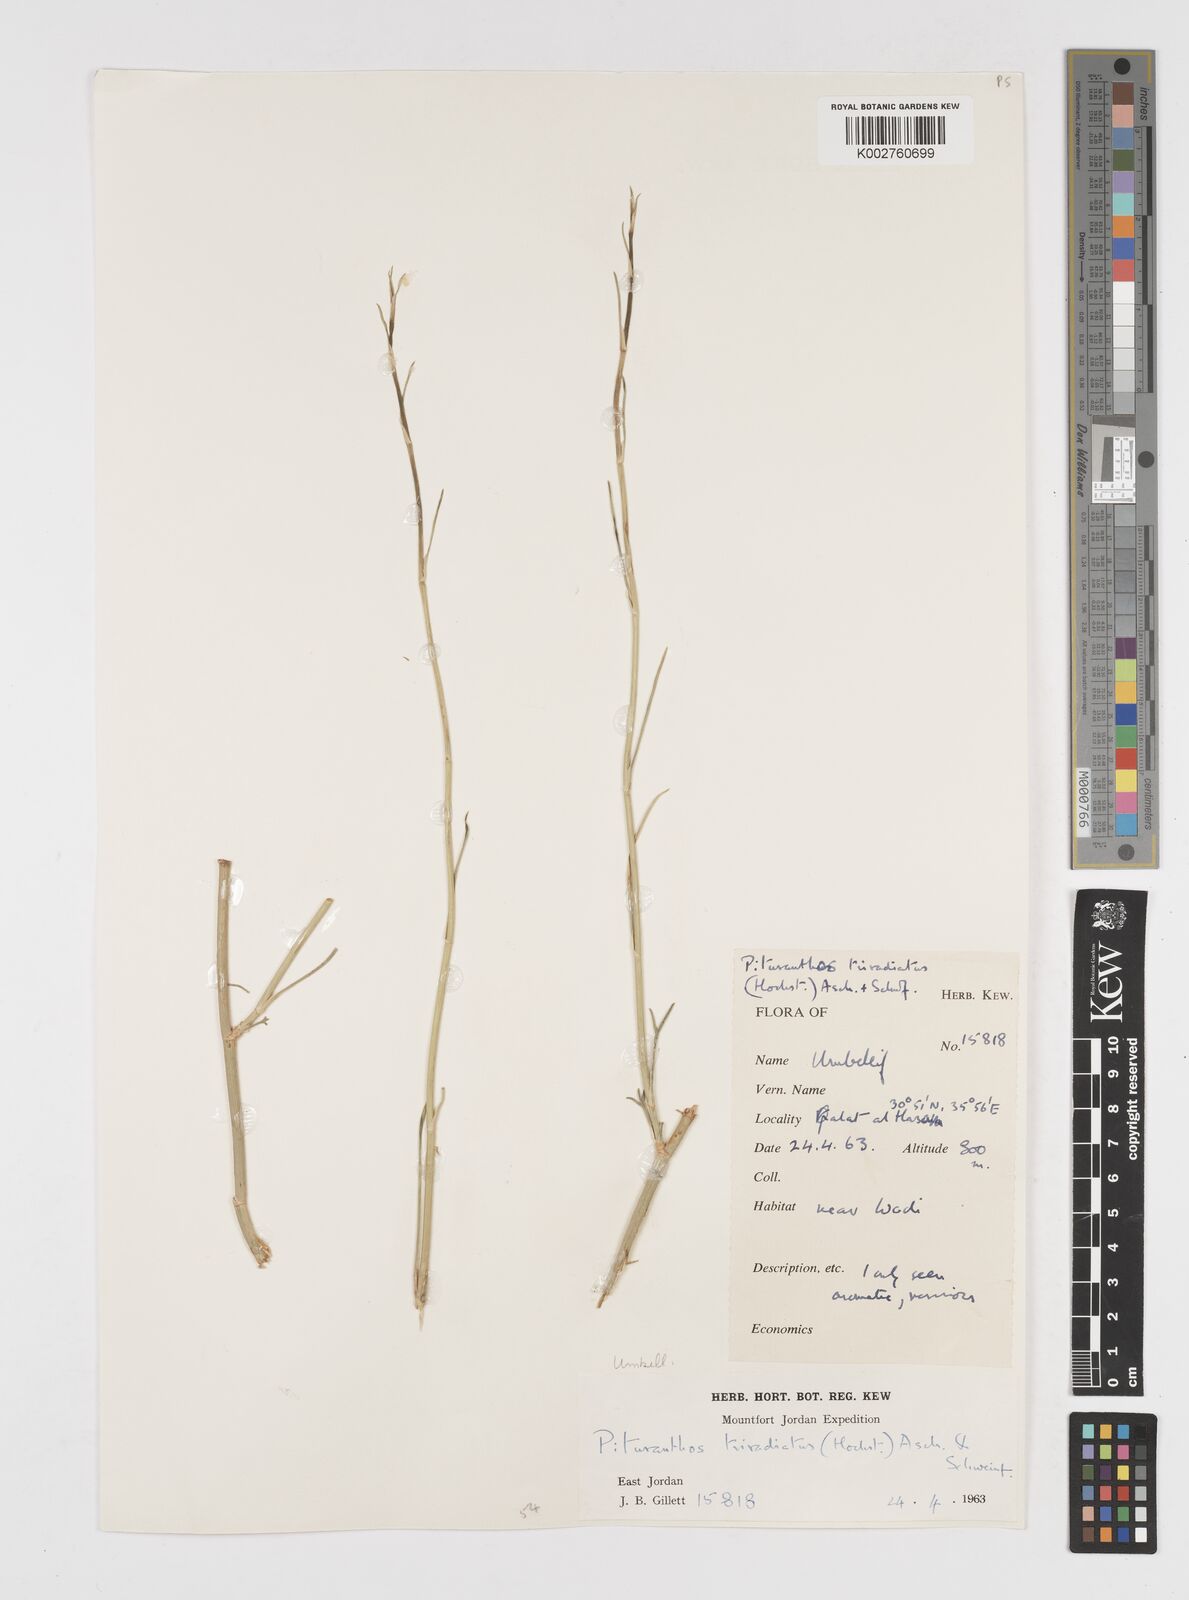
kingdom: Plantae
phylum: Tracheophyta
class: Magnoliopsida
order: Apiales
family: Apiaceae
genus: Deverra
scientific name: Deverra tortuosa
